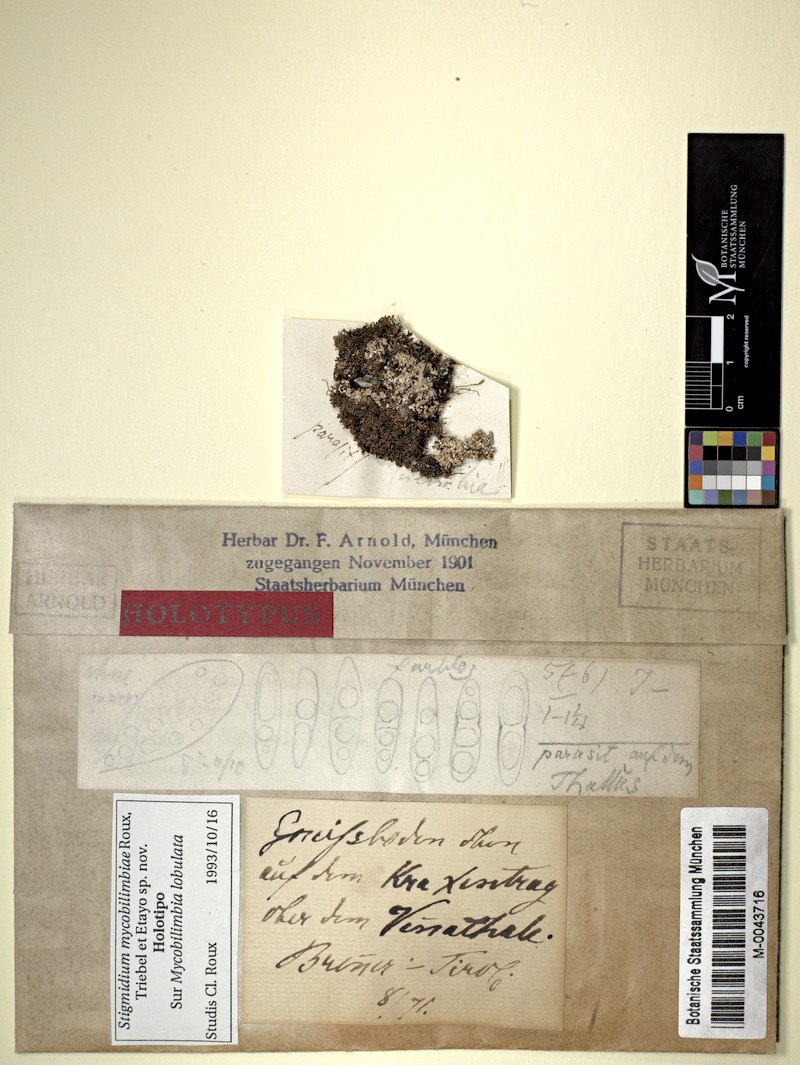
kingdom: Fungi
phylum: Ascomycota
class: Lecanoromycetes
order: Lecanorales
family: Ramalinaceae
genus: Bilimbia
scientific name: Bilimbia lobulata
